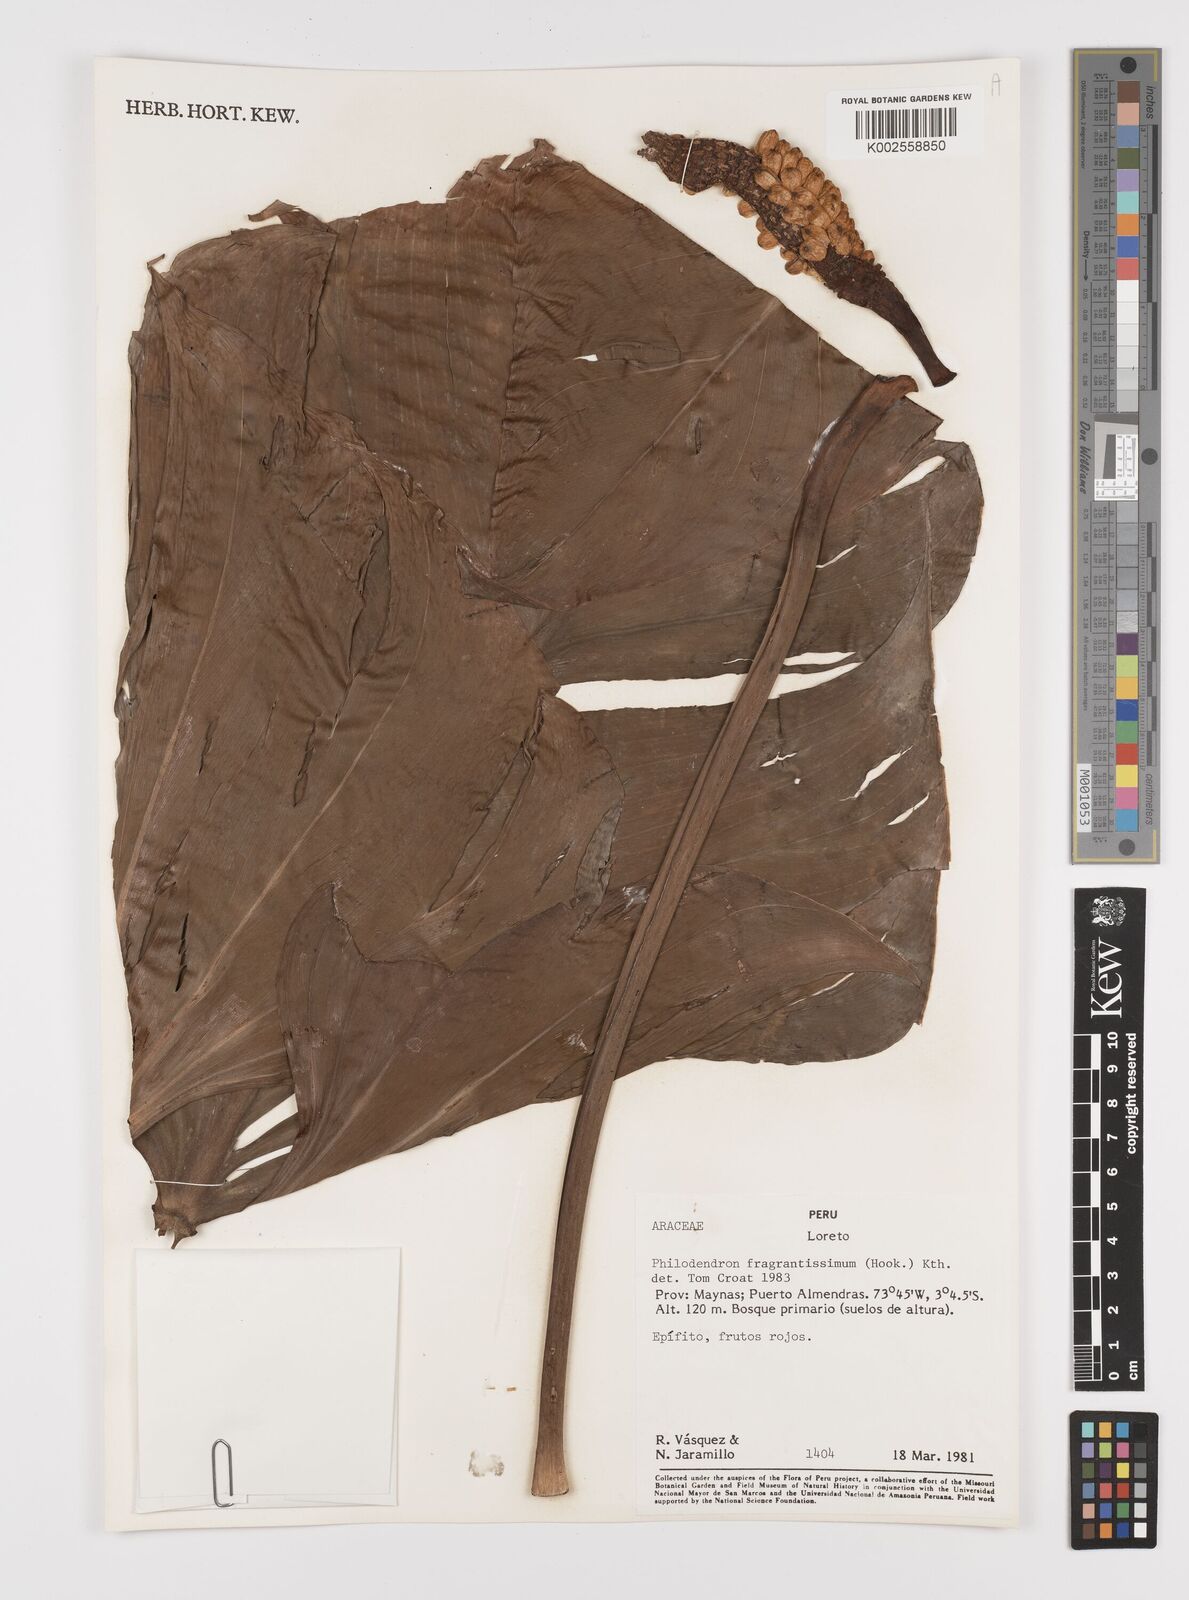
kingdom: Plantae
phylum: Tracheophyta
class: Liliopsida
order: Alismatales
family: Araceae
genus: Philodendron
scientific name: Philodendron fragrantissimum
